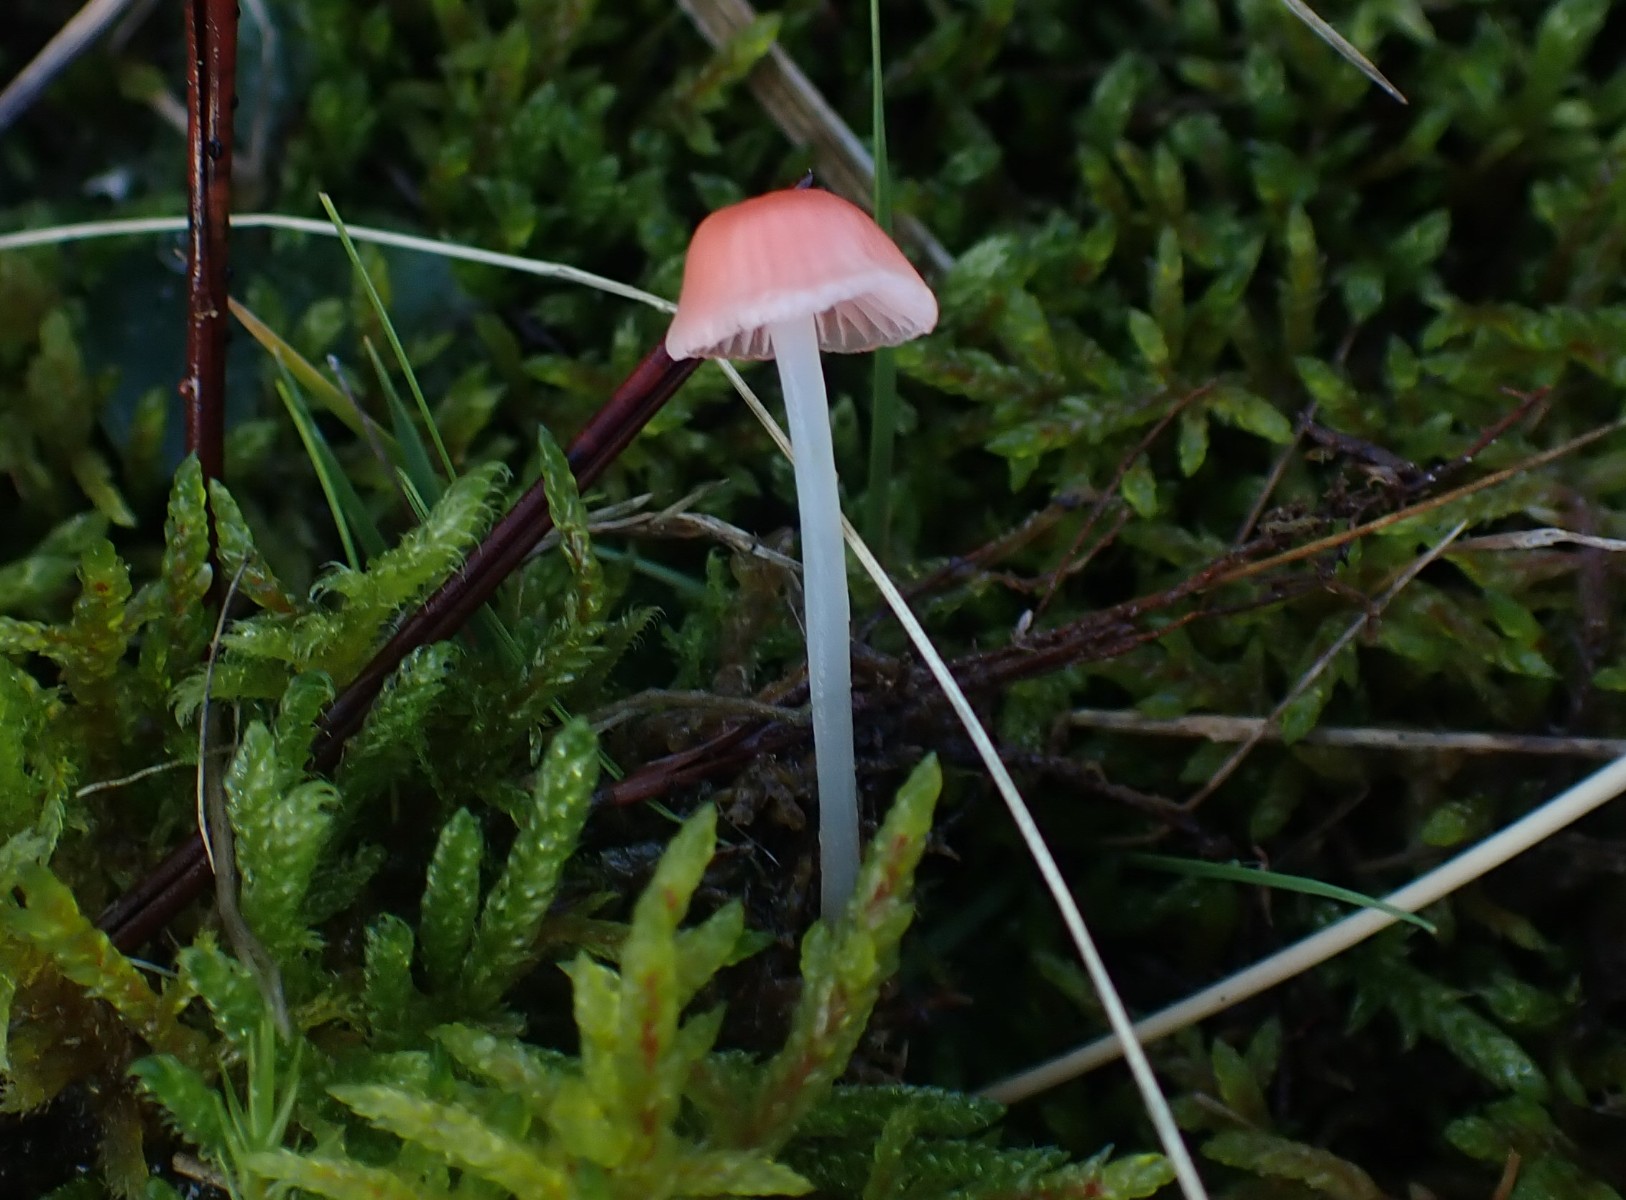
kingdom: Fungi
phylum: Basidiomycota
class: Agaricomycetes
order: Agaricales
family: Mycenaceae
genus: Atheniella
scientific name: Atheniella adonis
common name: rønnerød huesvamp
